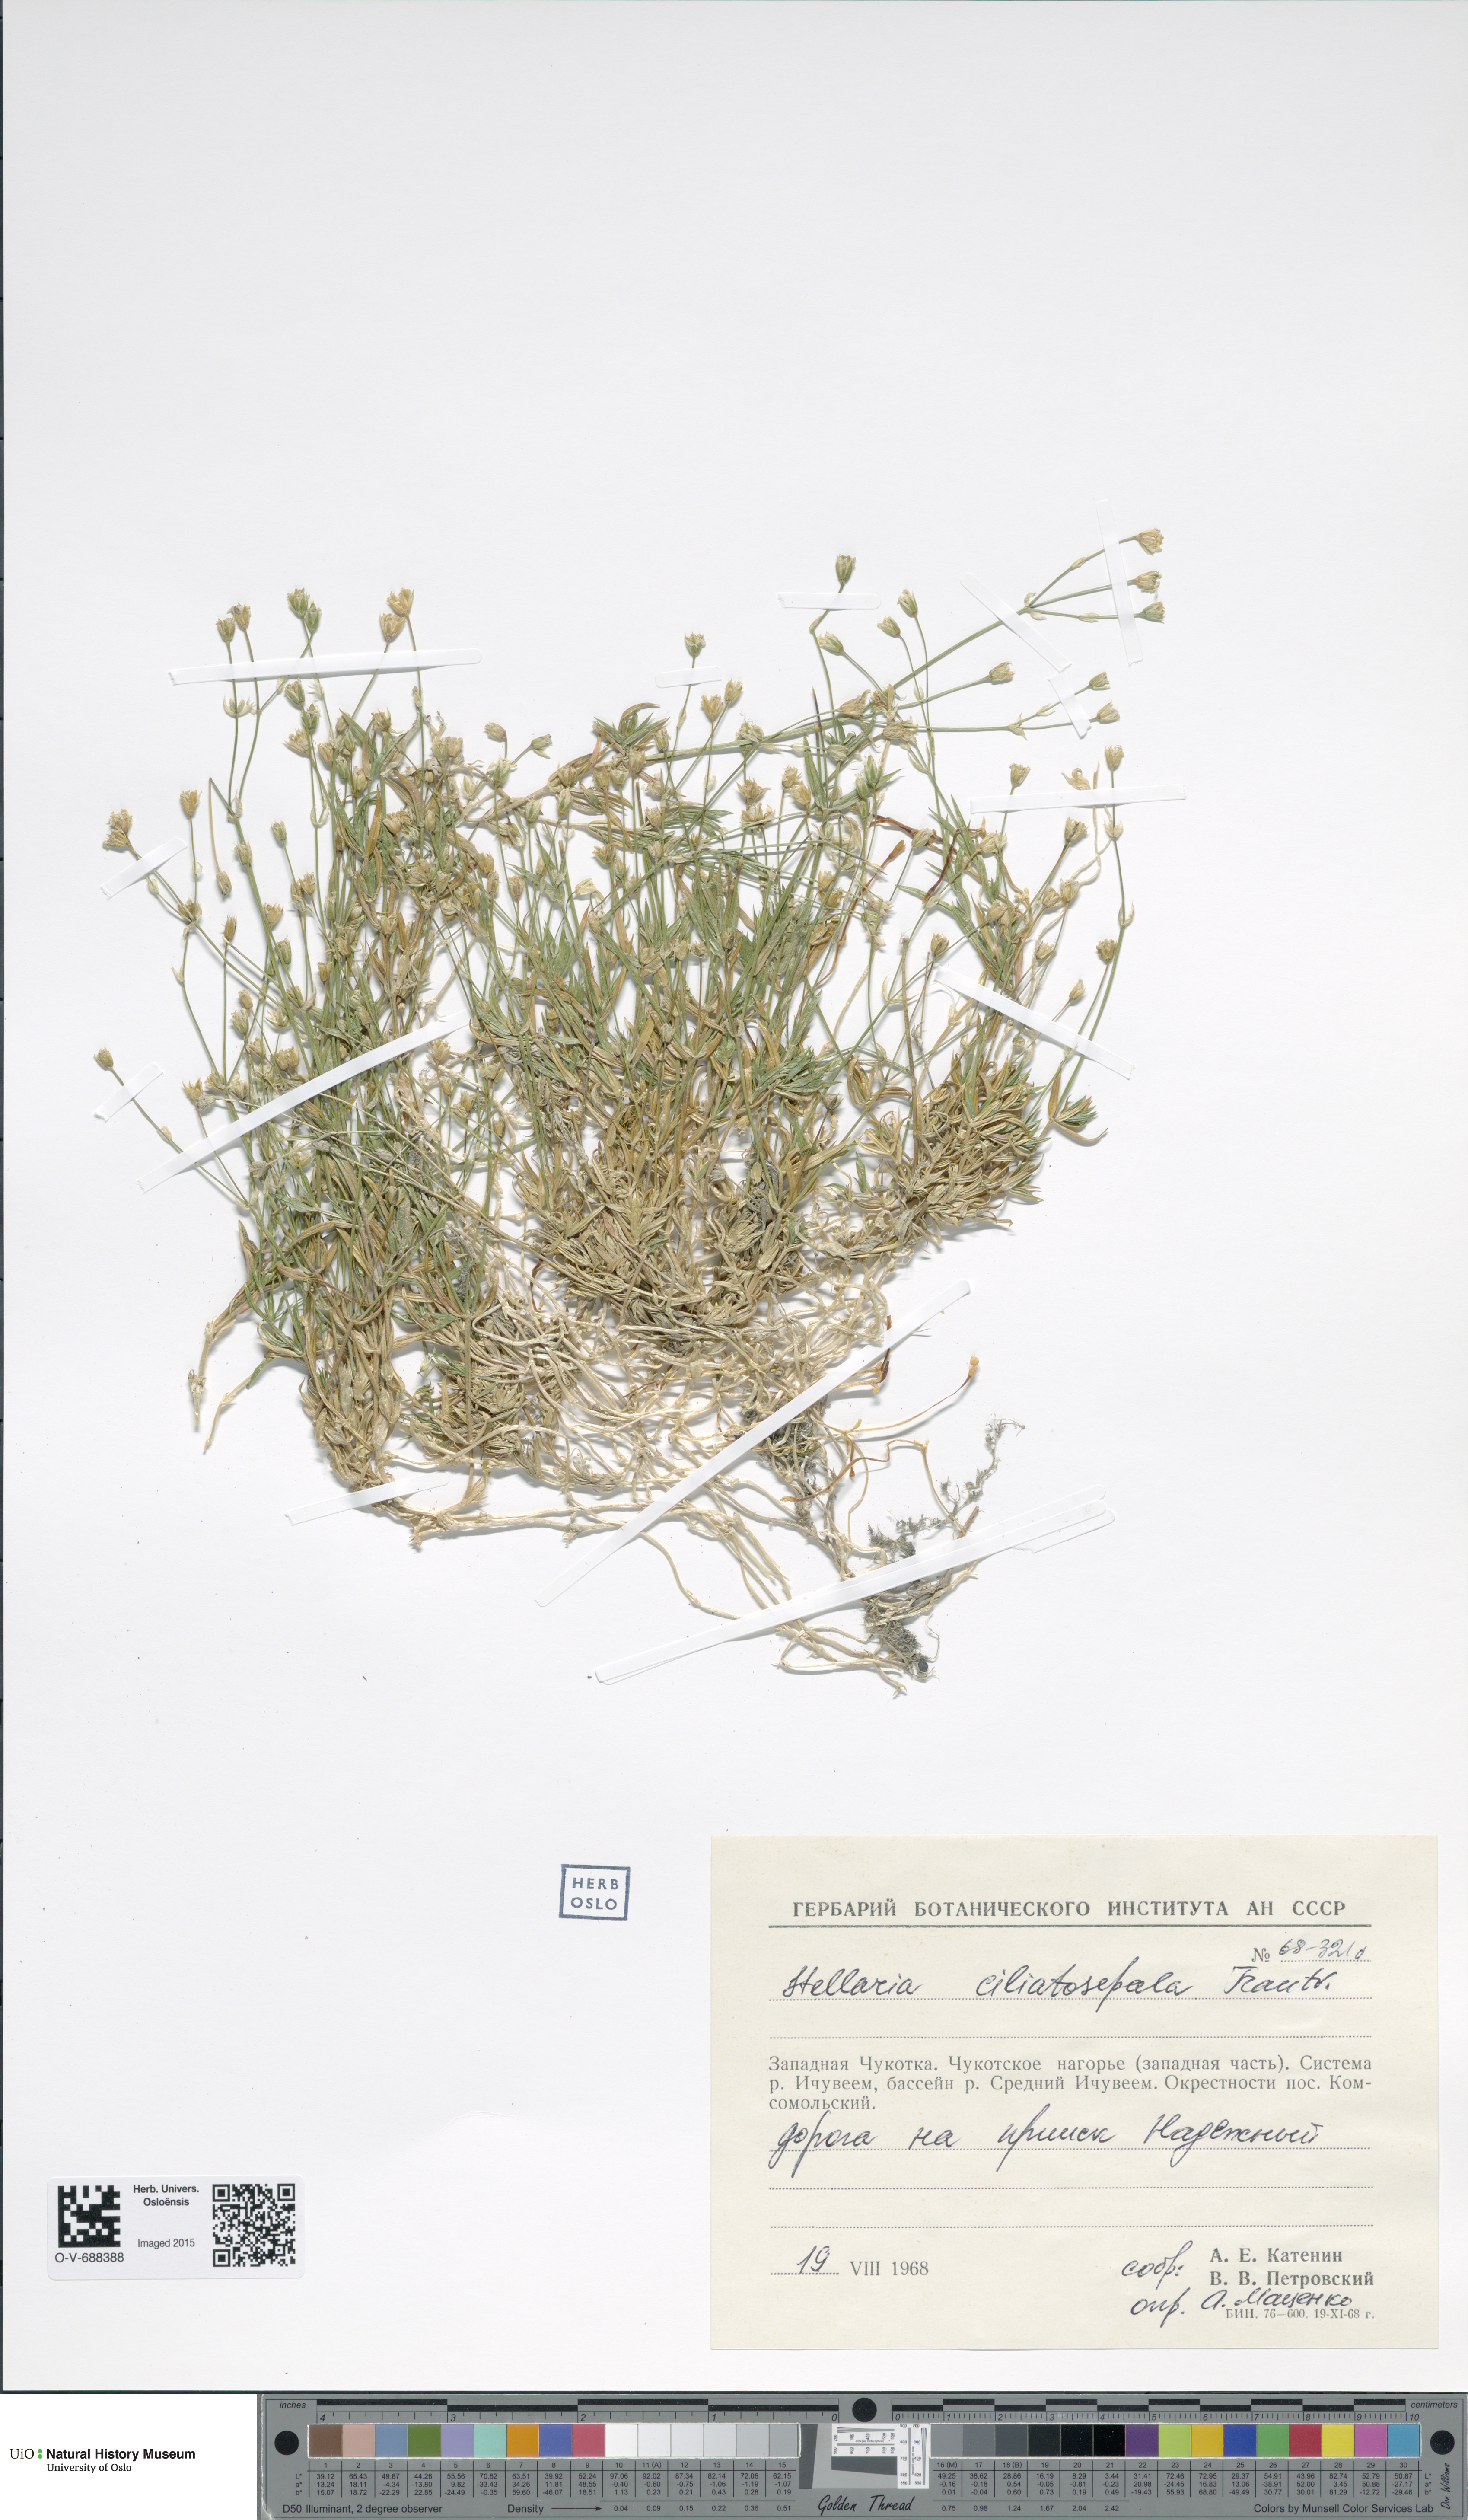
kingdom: Plantae
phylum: Tracheophyta
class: Magnoliopsida
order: Caryophyllales
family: Caryophyllaceae
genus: Stellaria
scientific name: Stellaria longipes
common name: Goldie's starwort
